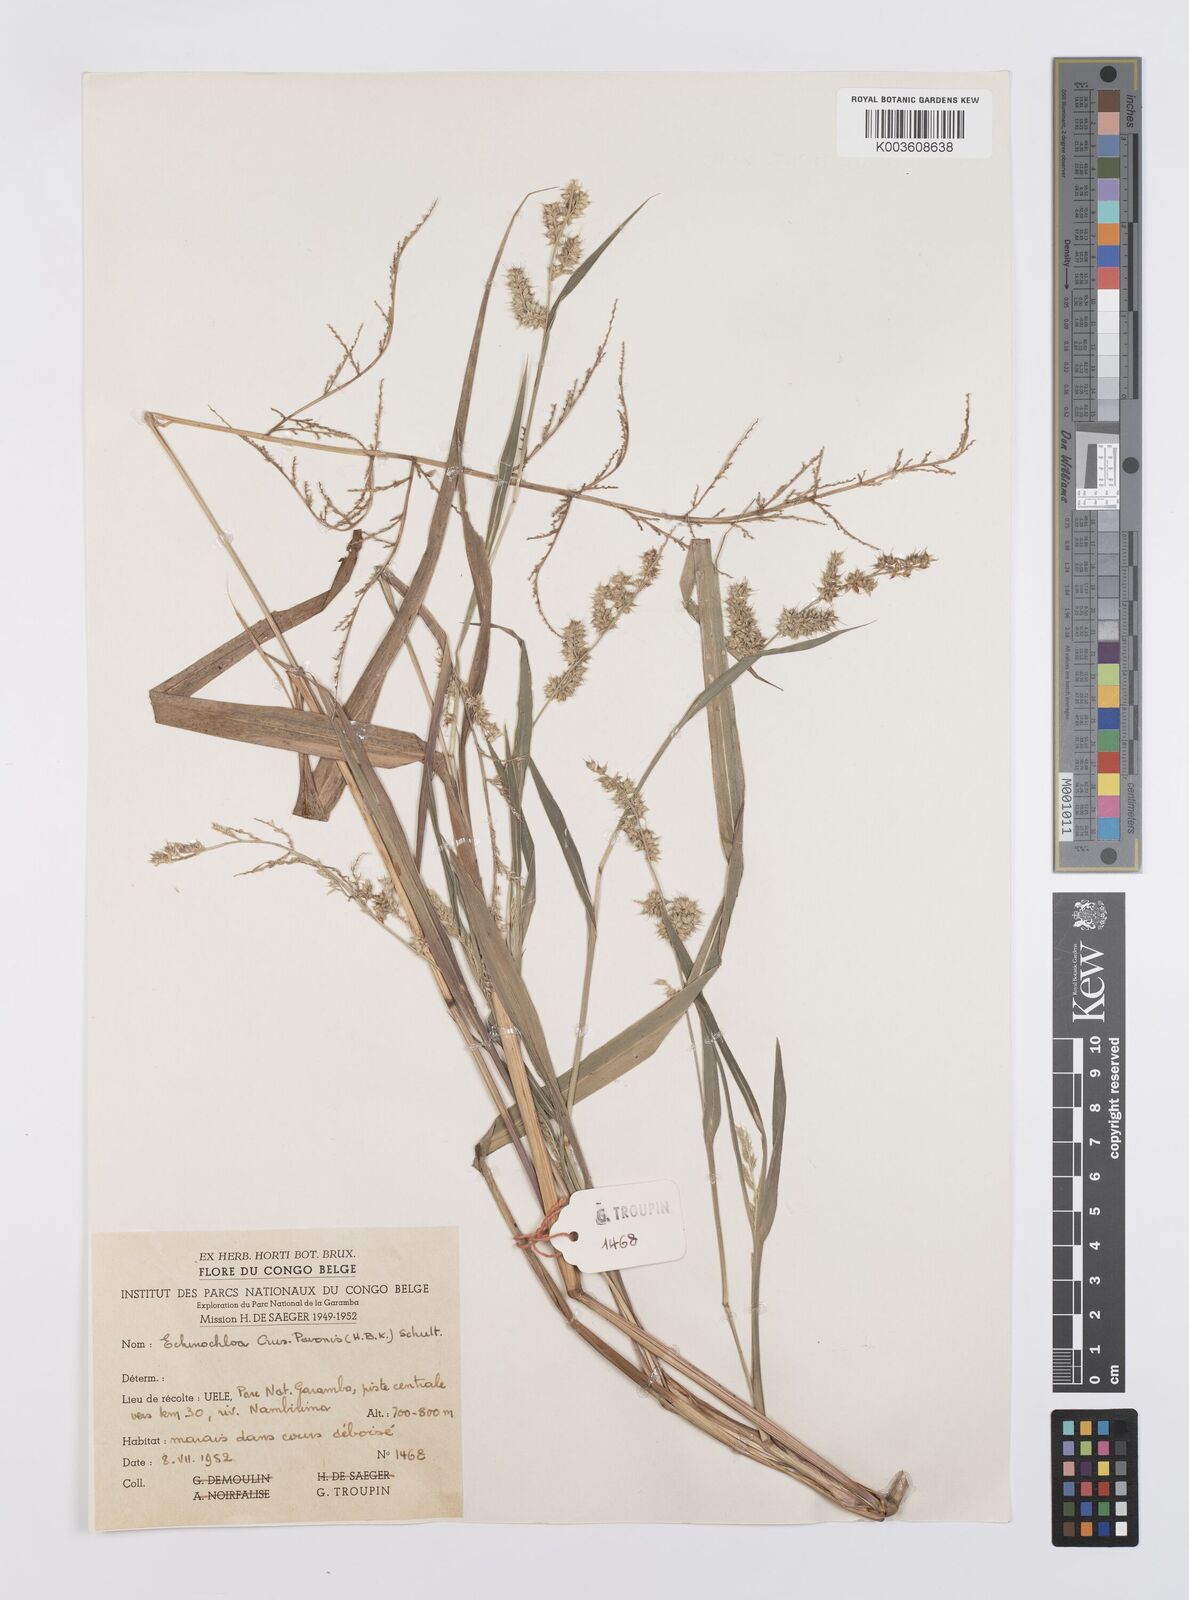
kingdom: Plantae
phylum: Tracheophyta
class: Liliopsida
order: Poales
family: Poaceae
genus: Echinochloa
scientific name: Echinochloa crus-pavonis
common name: Gulf cockspur grass
